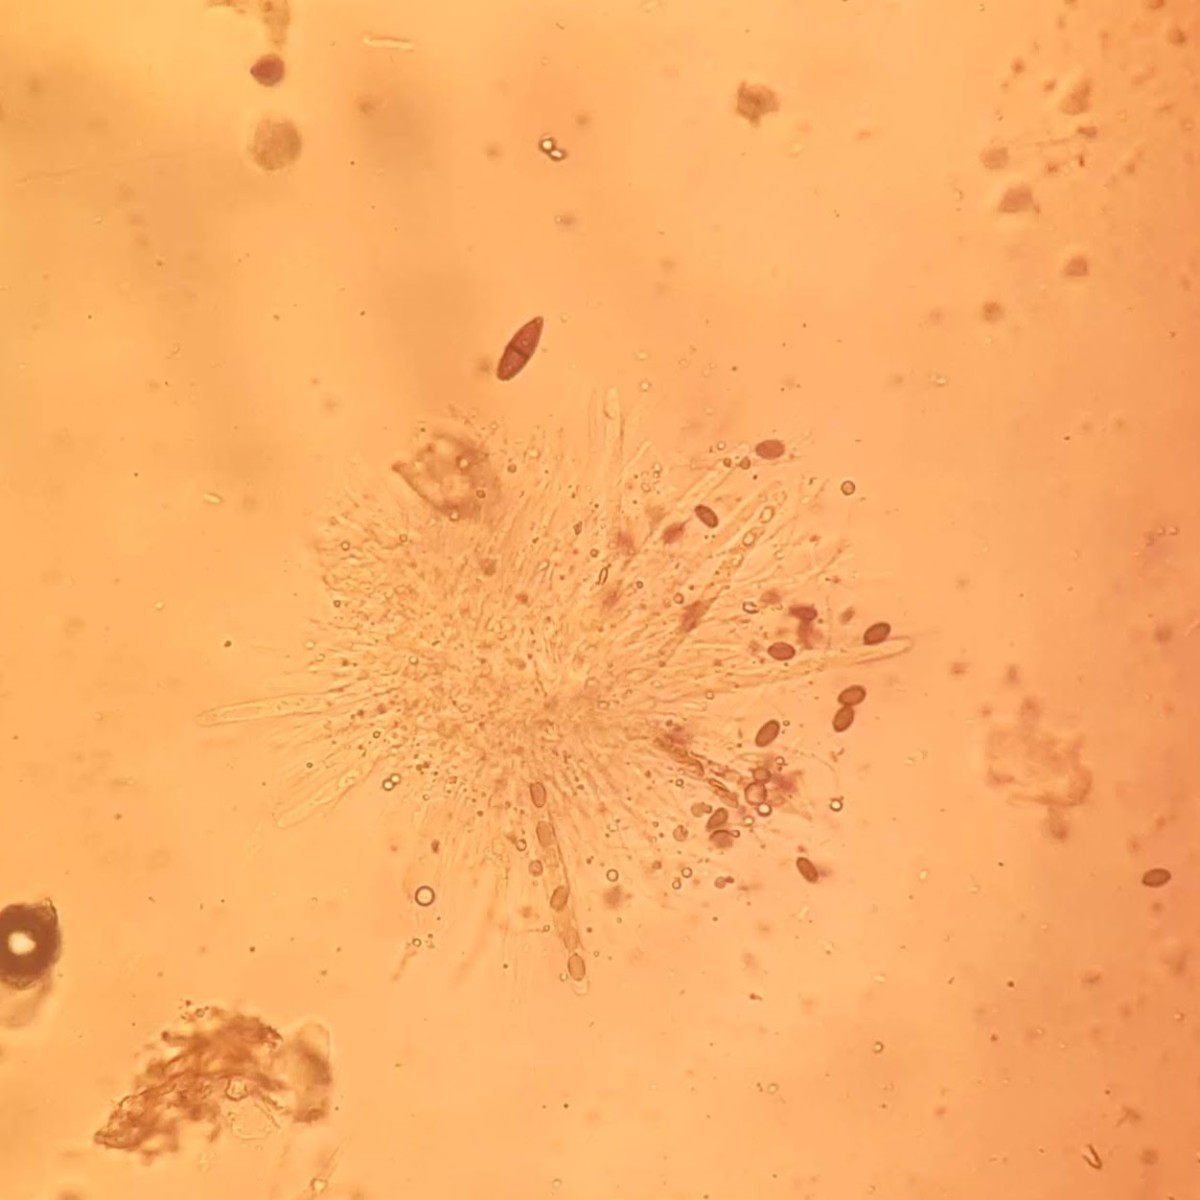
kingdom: Fungi
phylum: Ascomycota
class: Sordariomycetes
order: Coniochaetales
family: Coniochaetaceae
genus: Coniochaeta
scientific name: Coniochaeta
